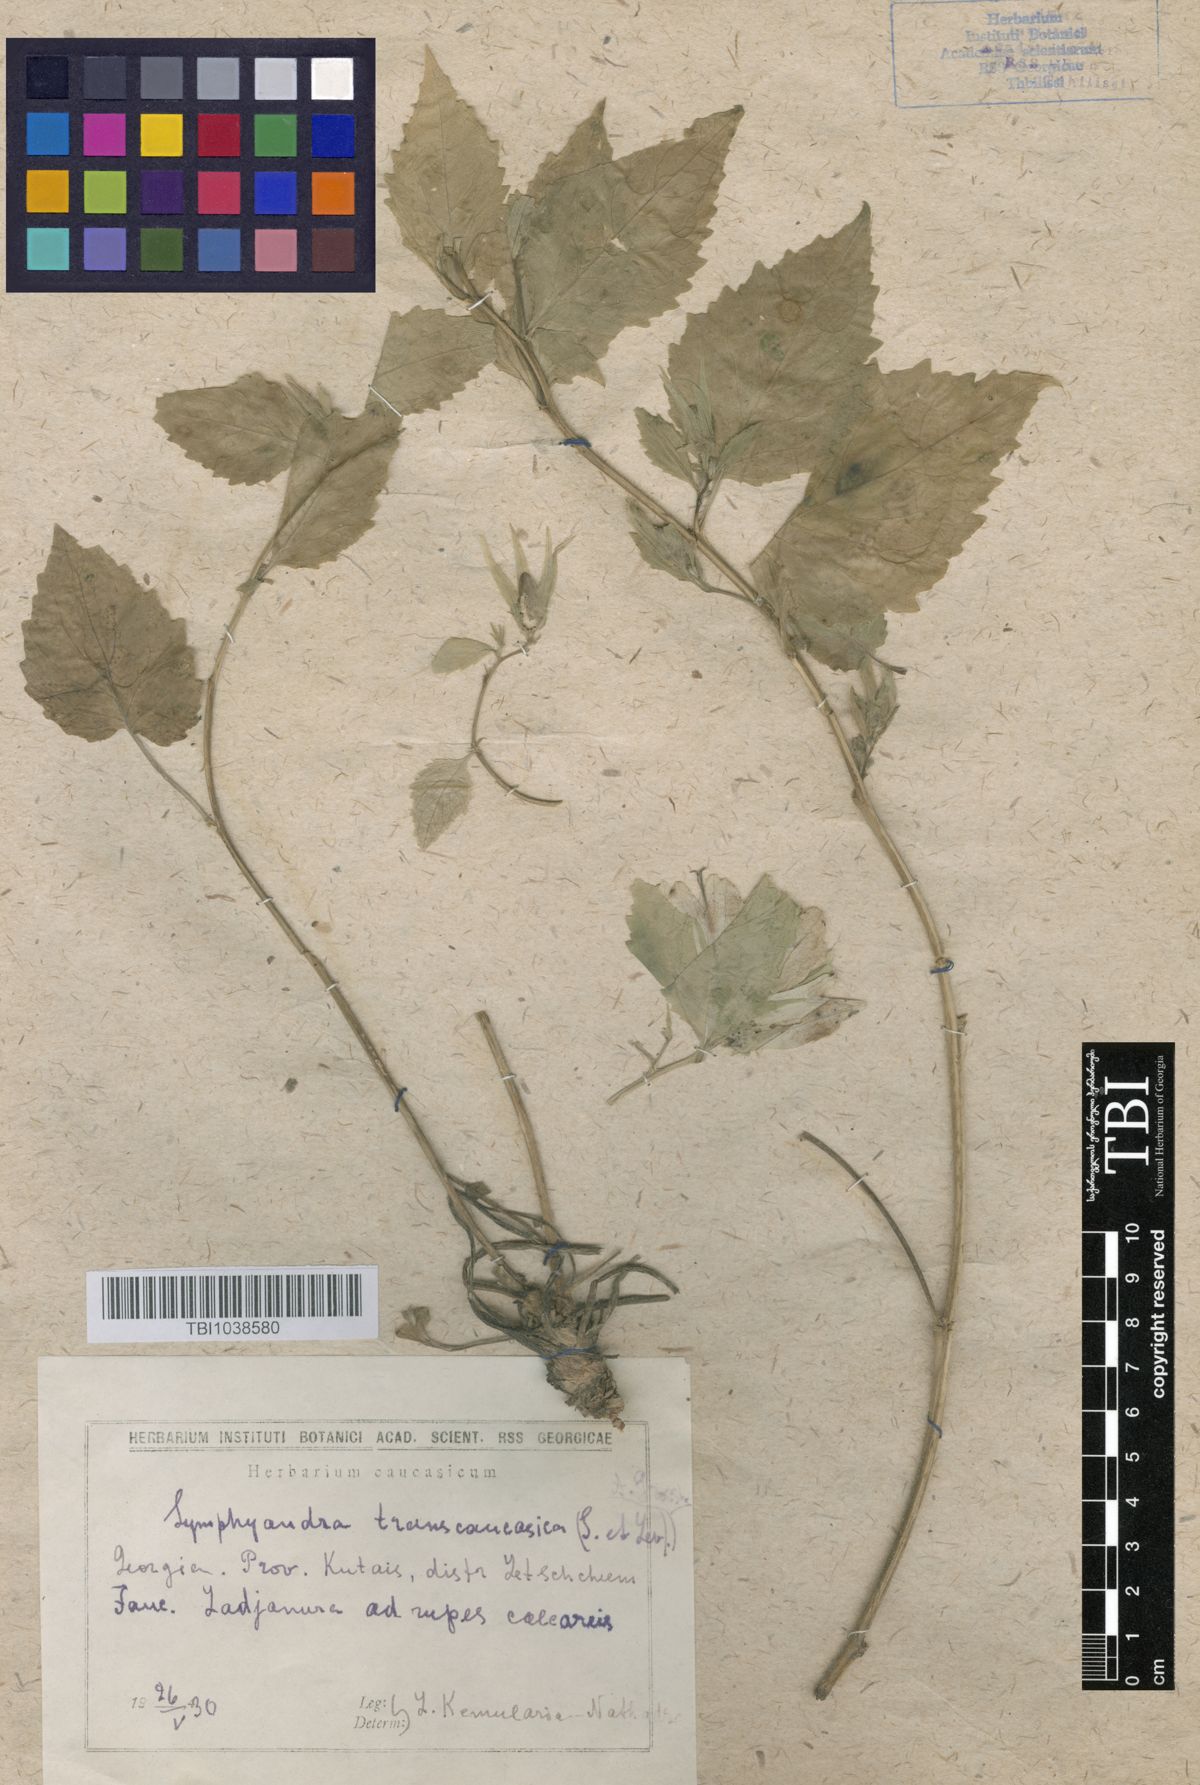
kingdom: Plantae
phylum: Tracheophyta
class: Magnoliopsida
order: Asterales
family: Campanulaceae
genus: Campanula
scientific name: Campanula pendula
